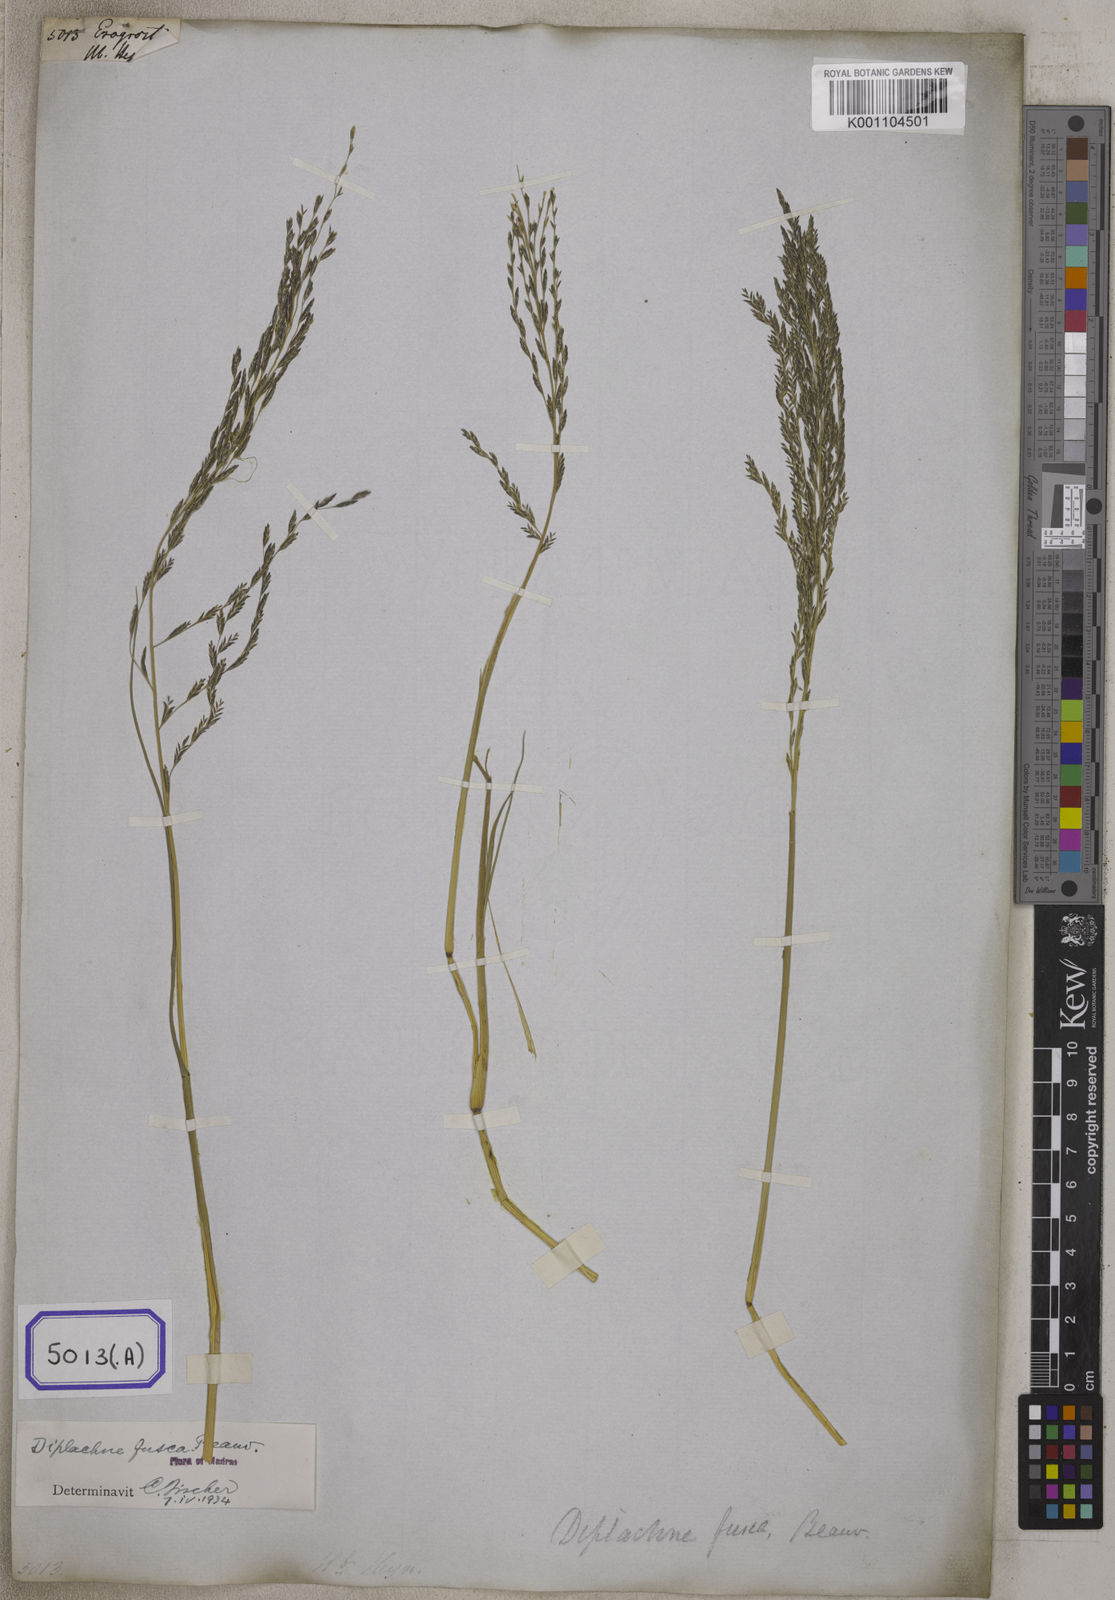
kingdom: Plantae
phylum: Tracheophyta
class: Liliopsida
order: Poales
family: Poaceae
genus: Eragrostis
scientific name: Eragrostis
